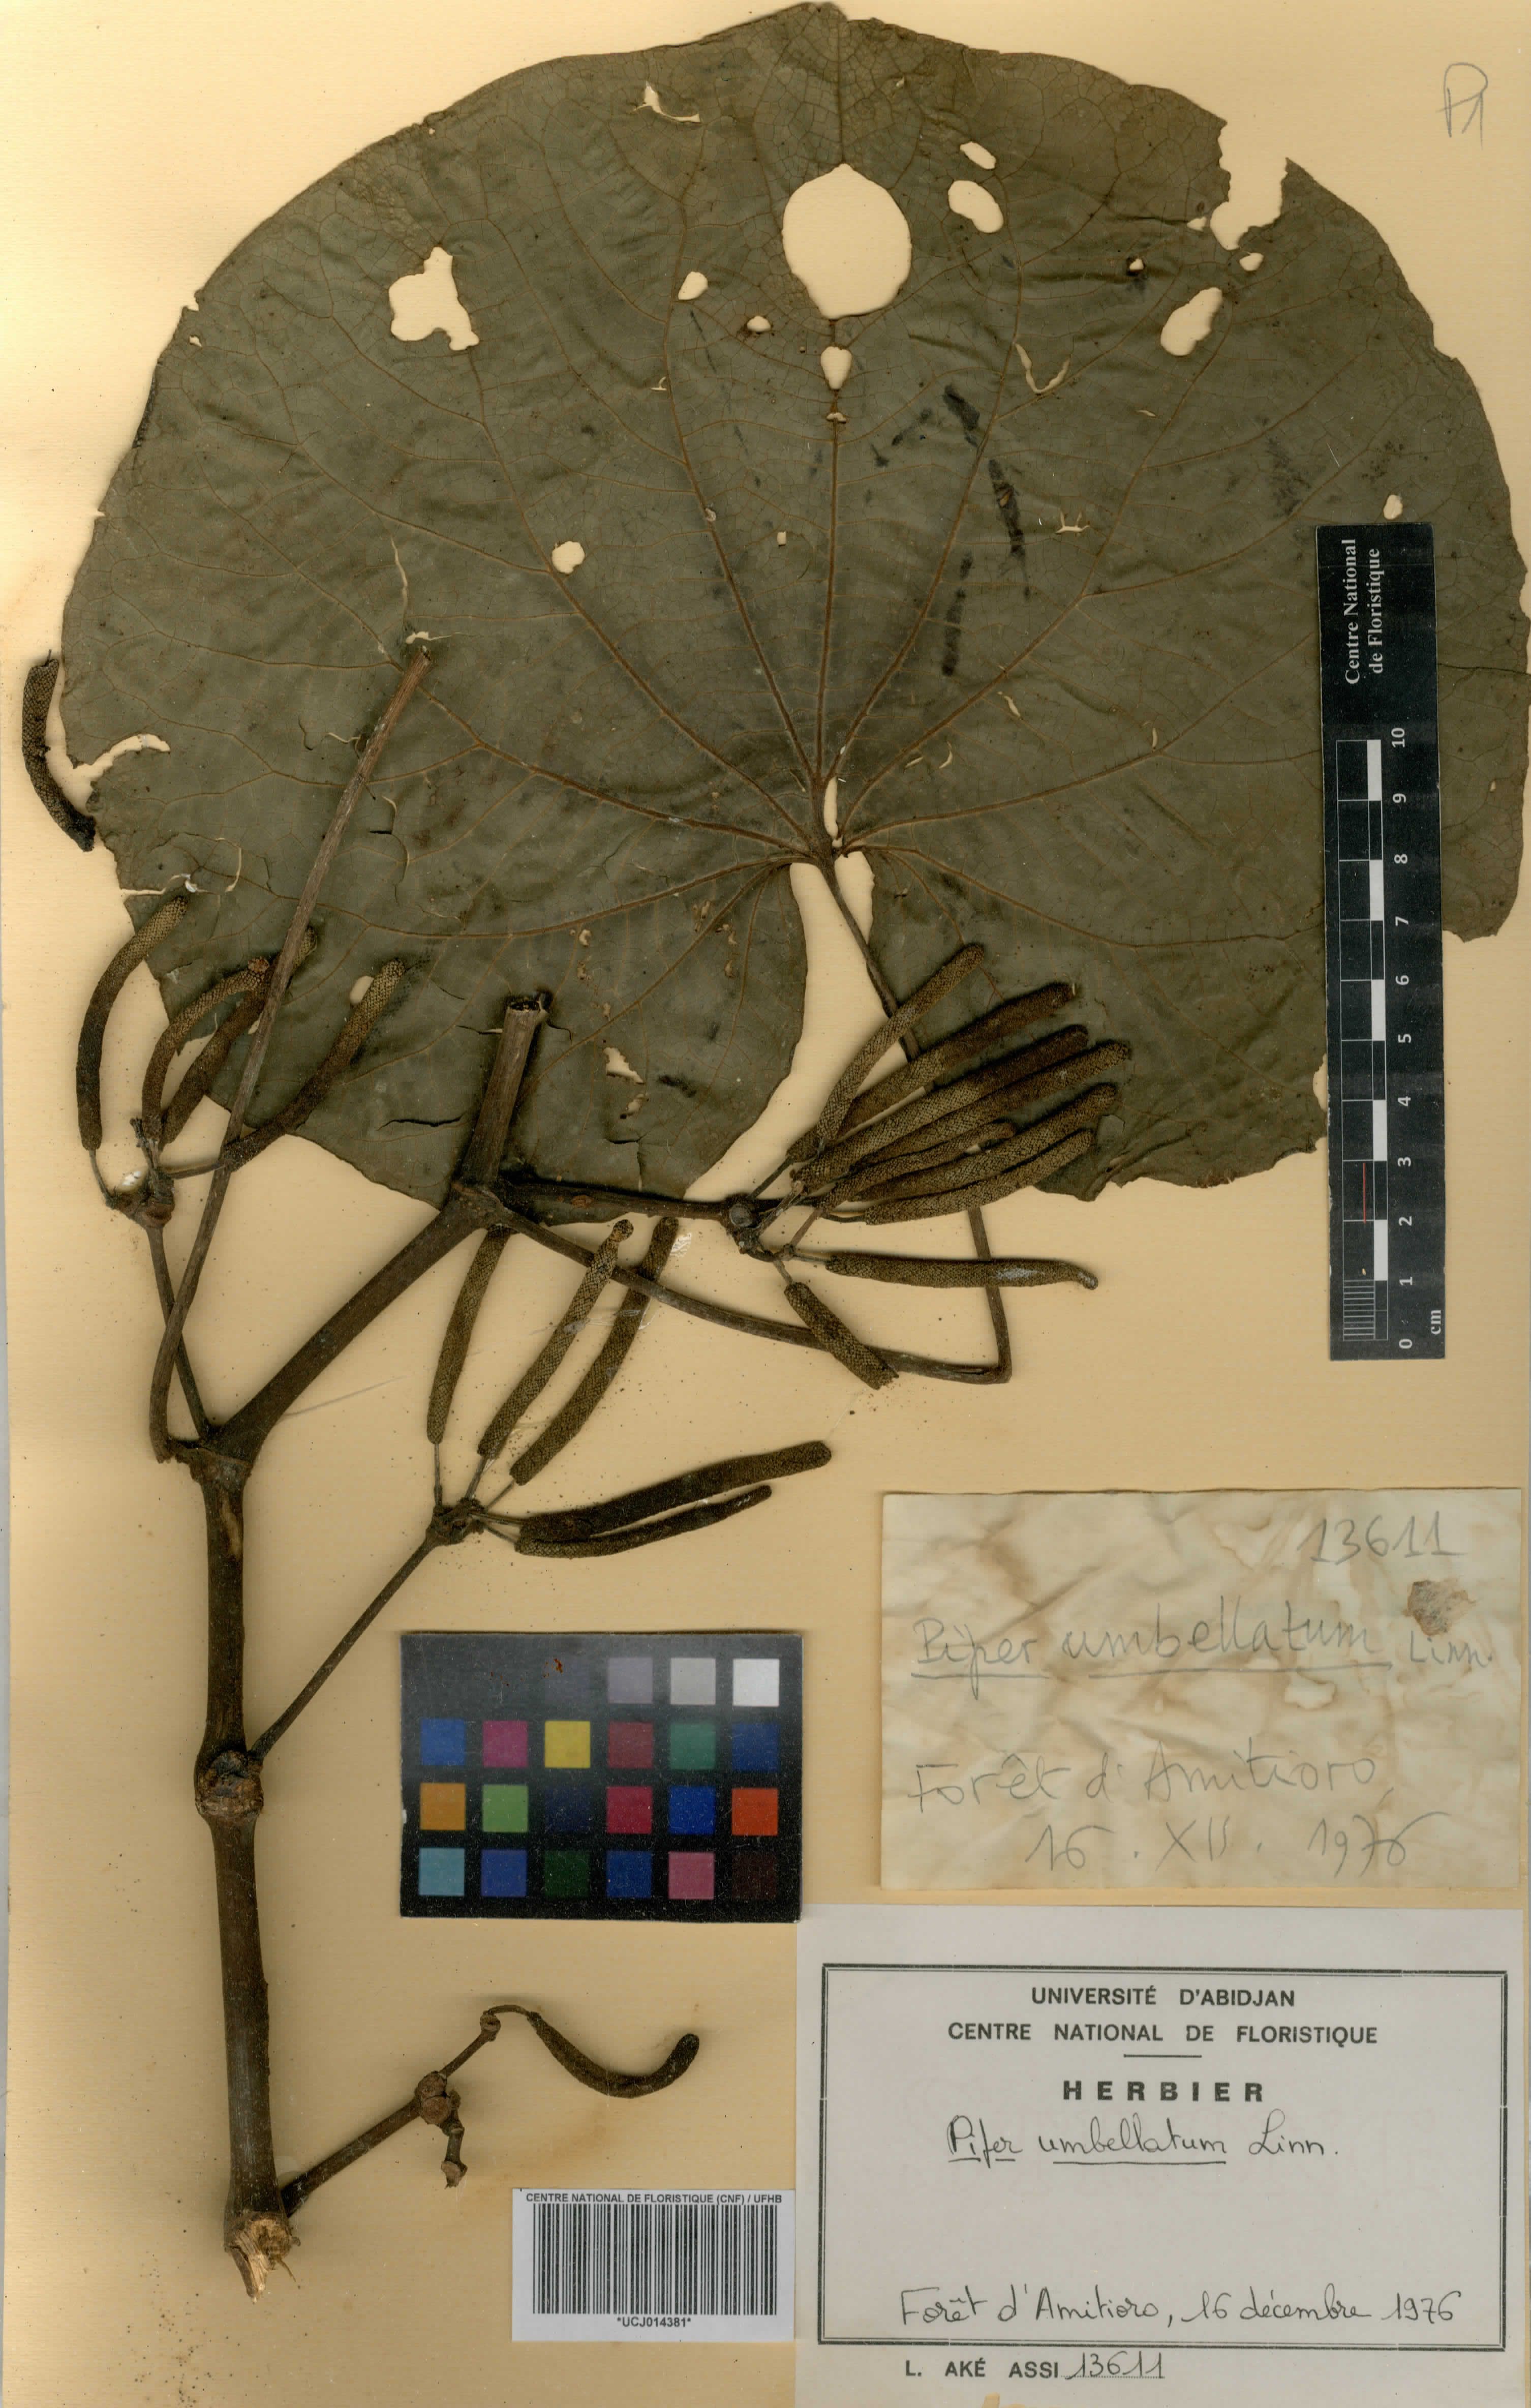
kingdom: Plantae
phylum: Tracheophyta
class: Magnoliopsida
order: Piperales
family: Piperaceae
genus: Piper
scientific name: Piper umbellatum
